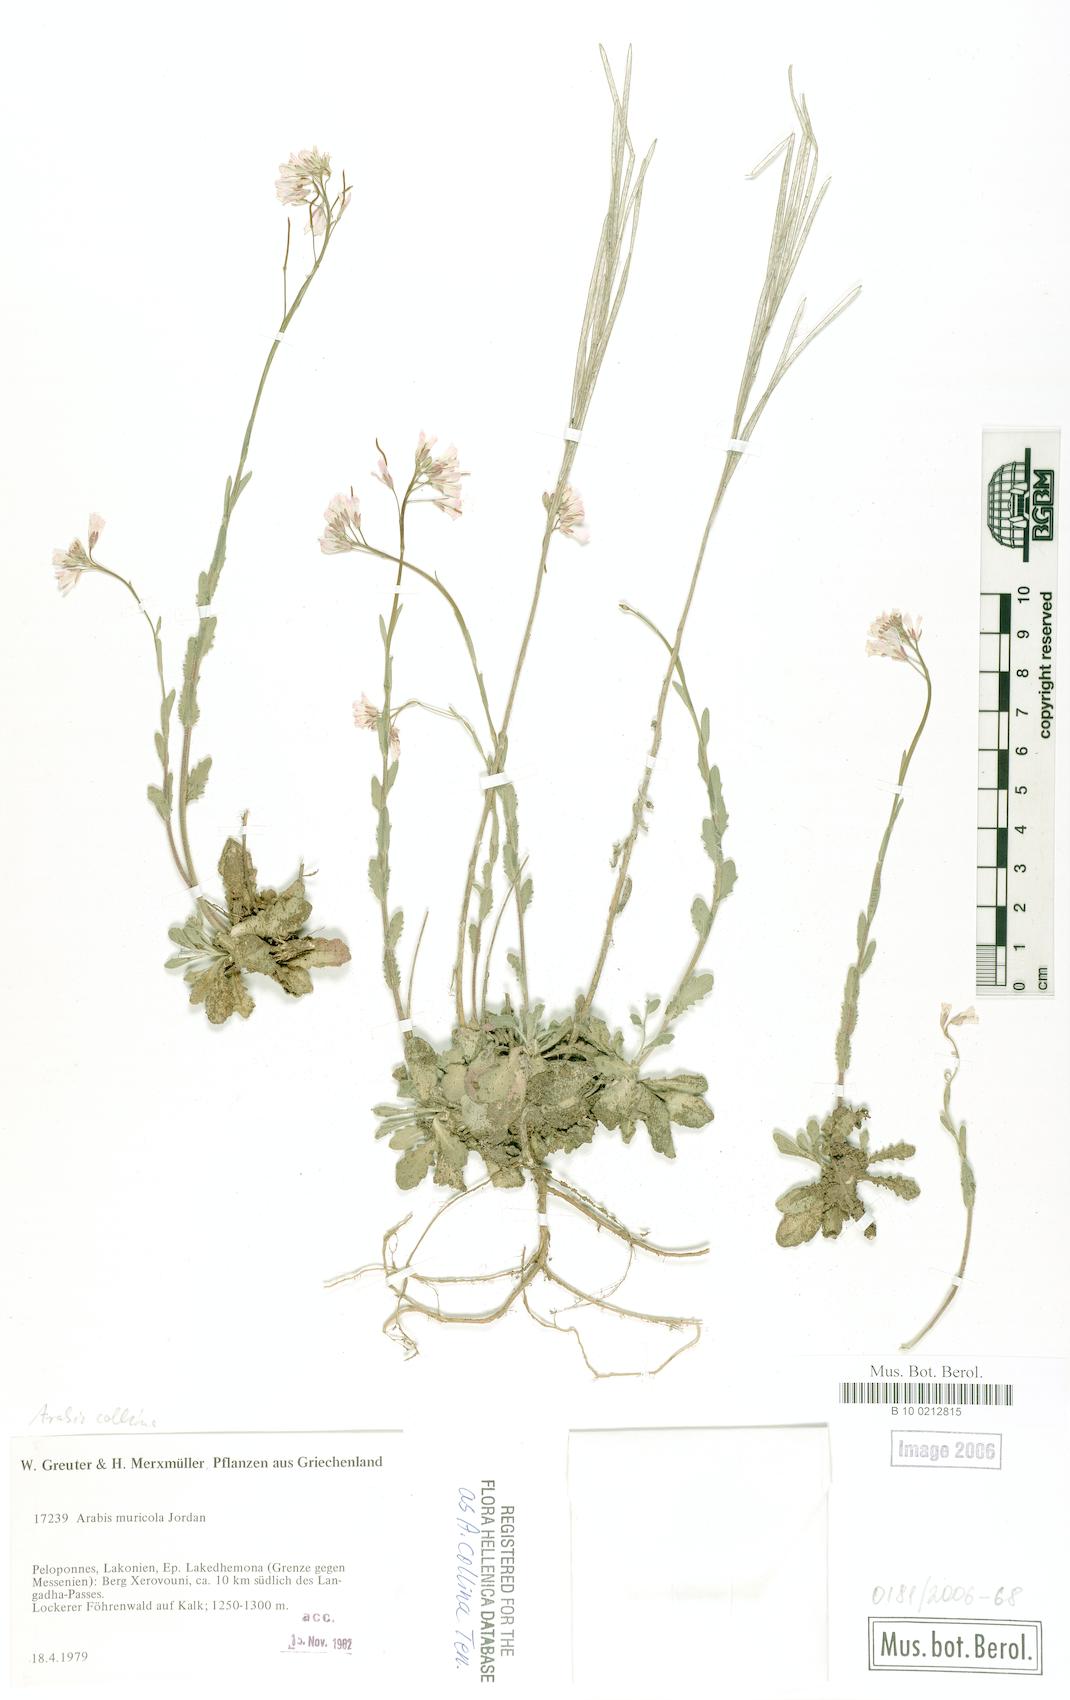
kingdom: Plantae
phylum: Tracheophyta
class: Magnoliopsida
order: Brassicales
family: Brassicaceae
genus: Arabis
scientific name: Arabis collina
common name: Rosy cress
